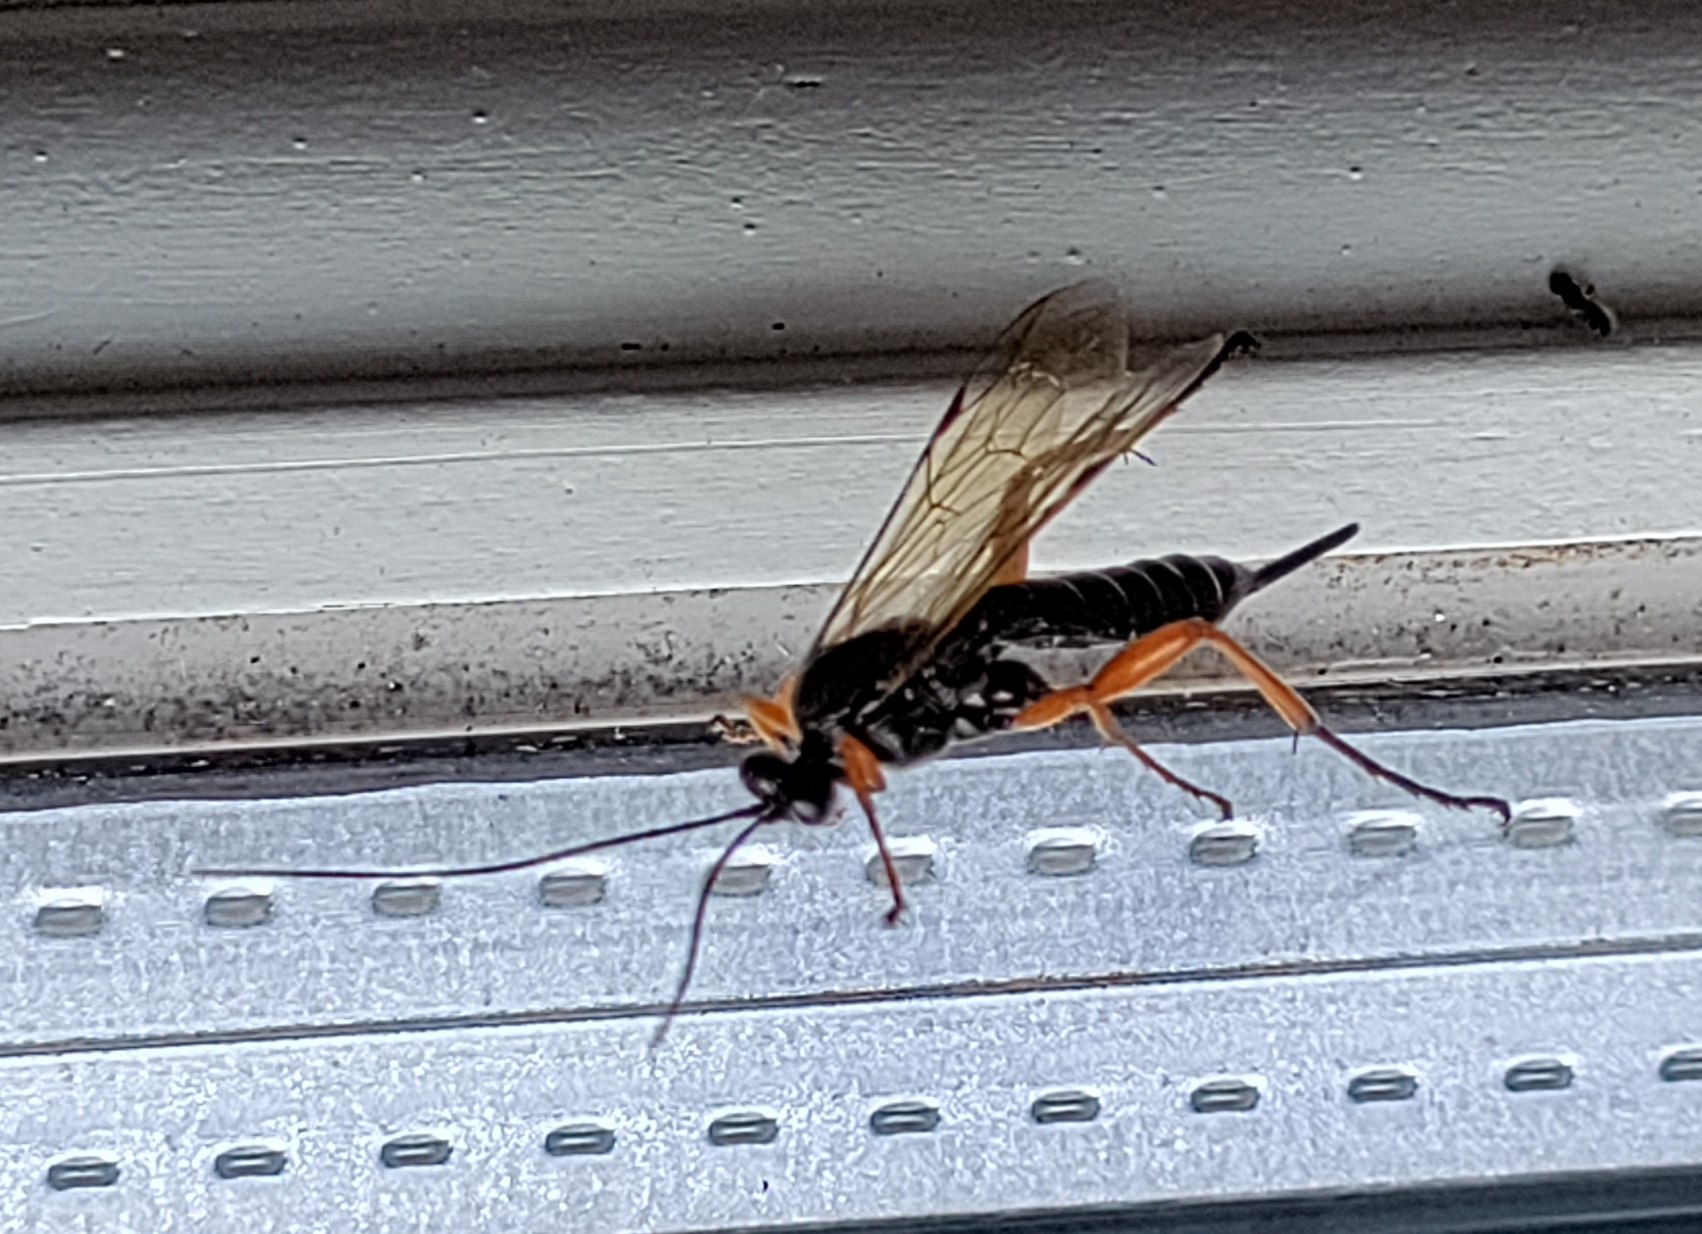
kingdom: Animalia
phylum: Arthropoda
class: Insecta
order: Hymenoptera
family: Ichneumonidae
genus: Pimpla
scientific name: Pimpla rufipes
